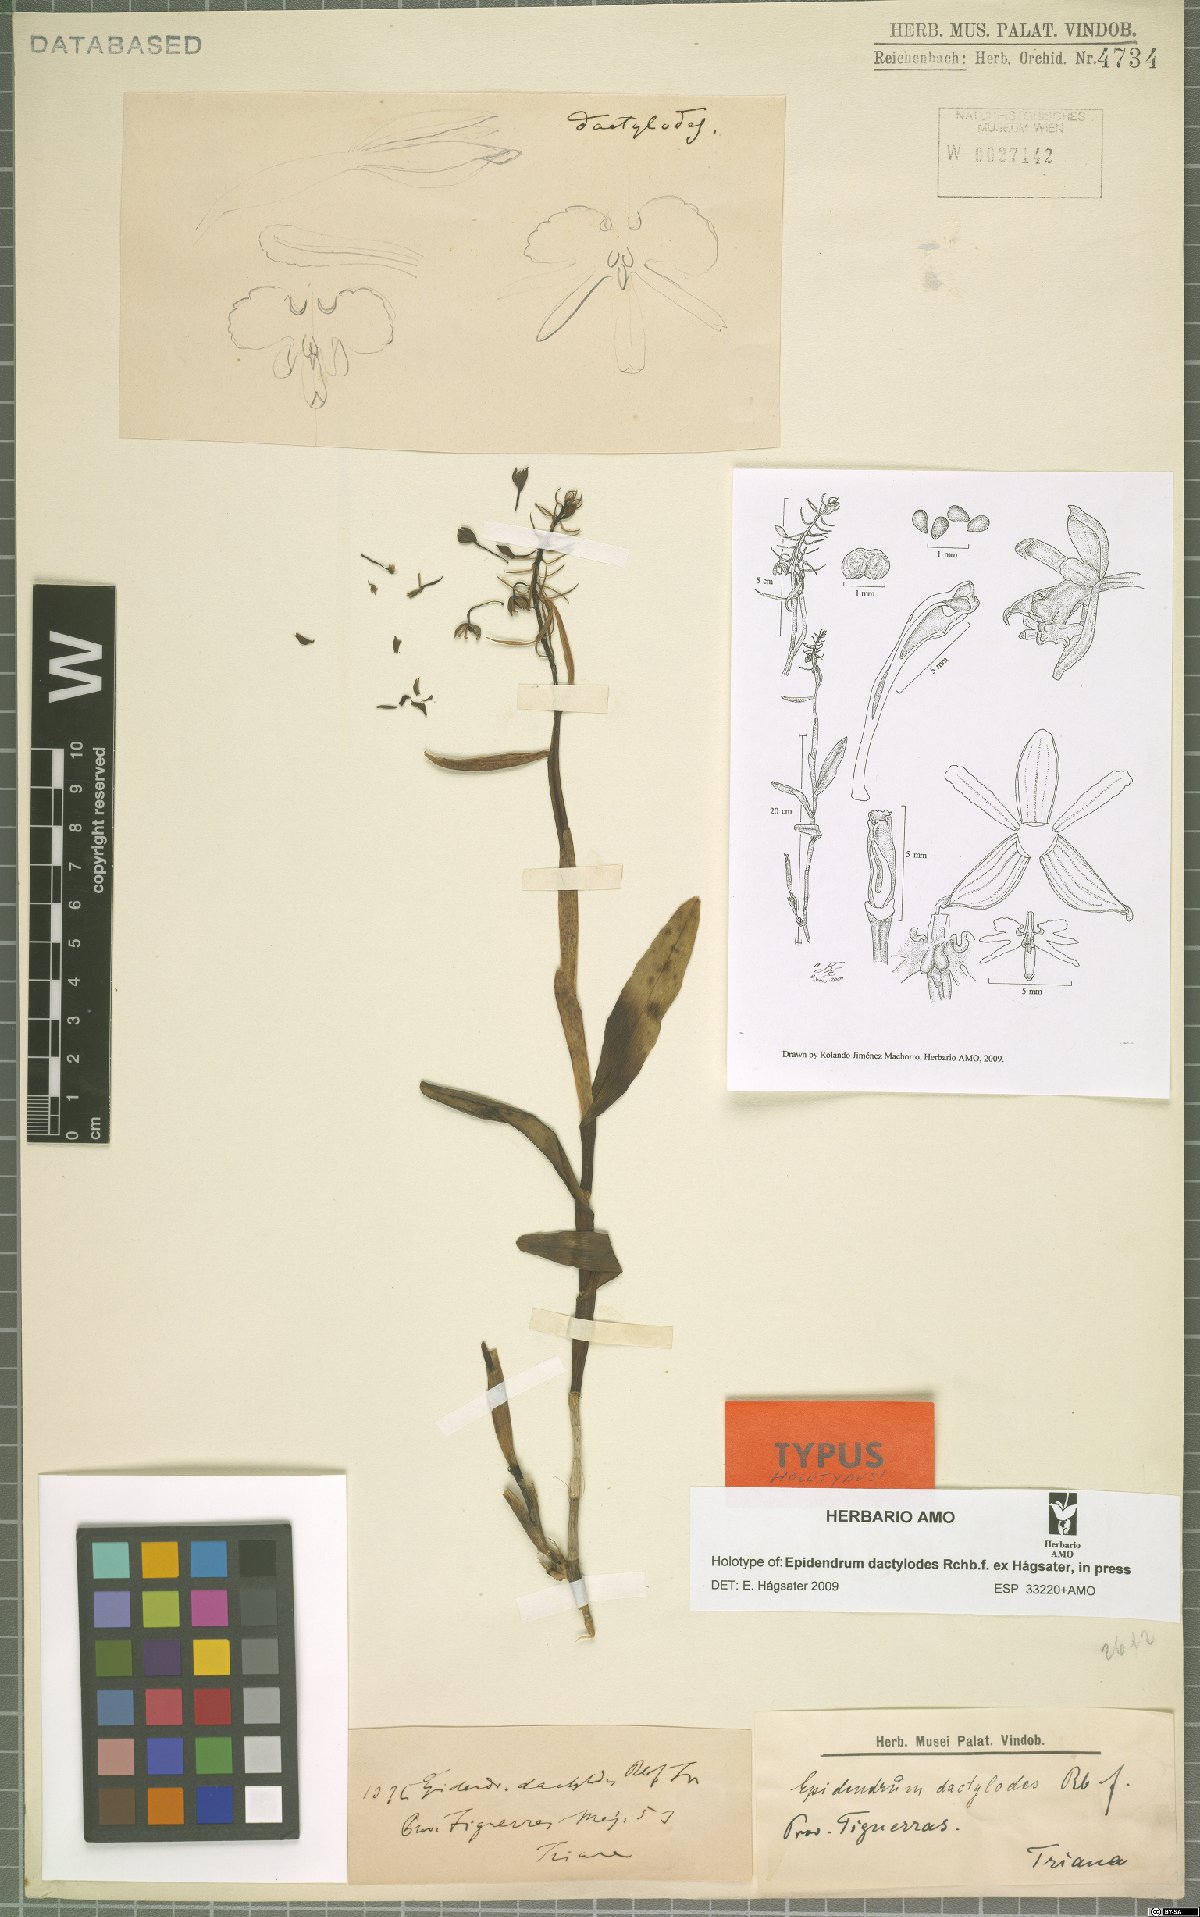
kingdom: Plantae
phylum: Tracheophyta
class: Liliopsida
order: Asparagales
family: Orchidaceae
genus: Epidendrum
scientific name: Epidendrum dactylodes
